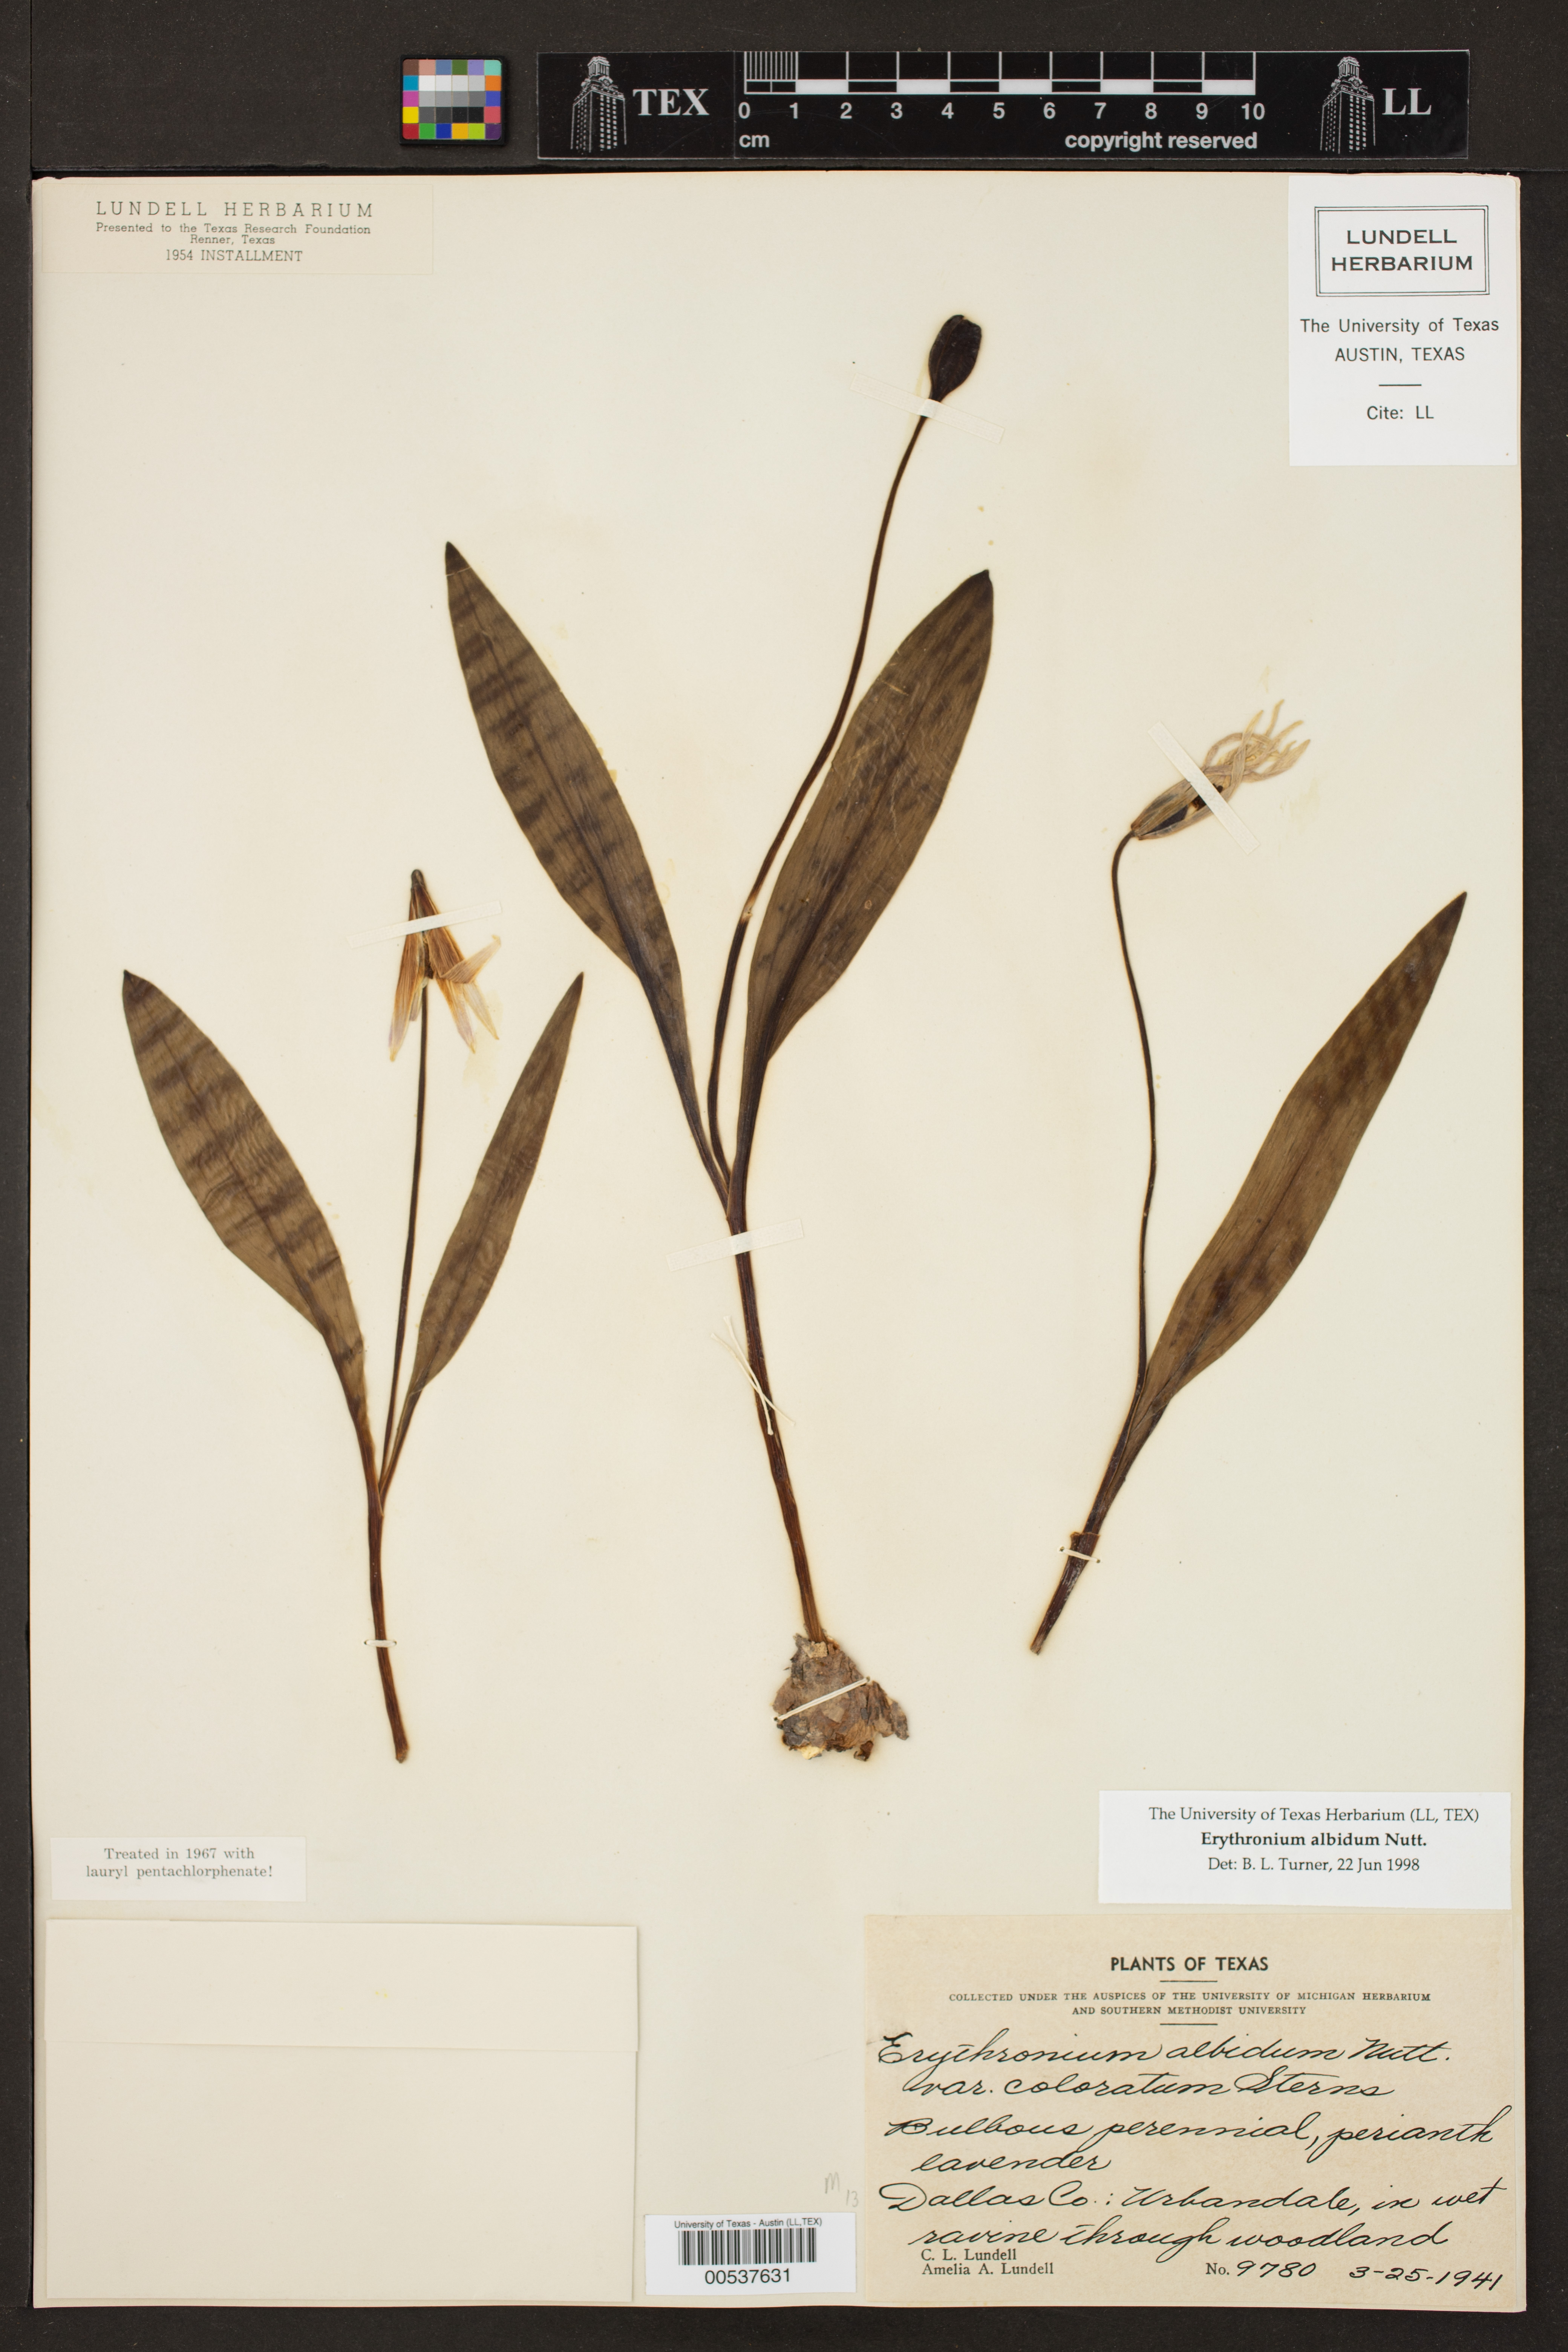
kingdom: Plantae
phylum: Tracheophyta
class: Liliopsida
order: Liliales
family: Liliaceae
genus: Erythronium
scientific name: Erythronium albidum
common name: White trout-lily
